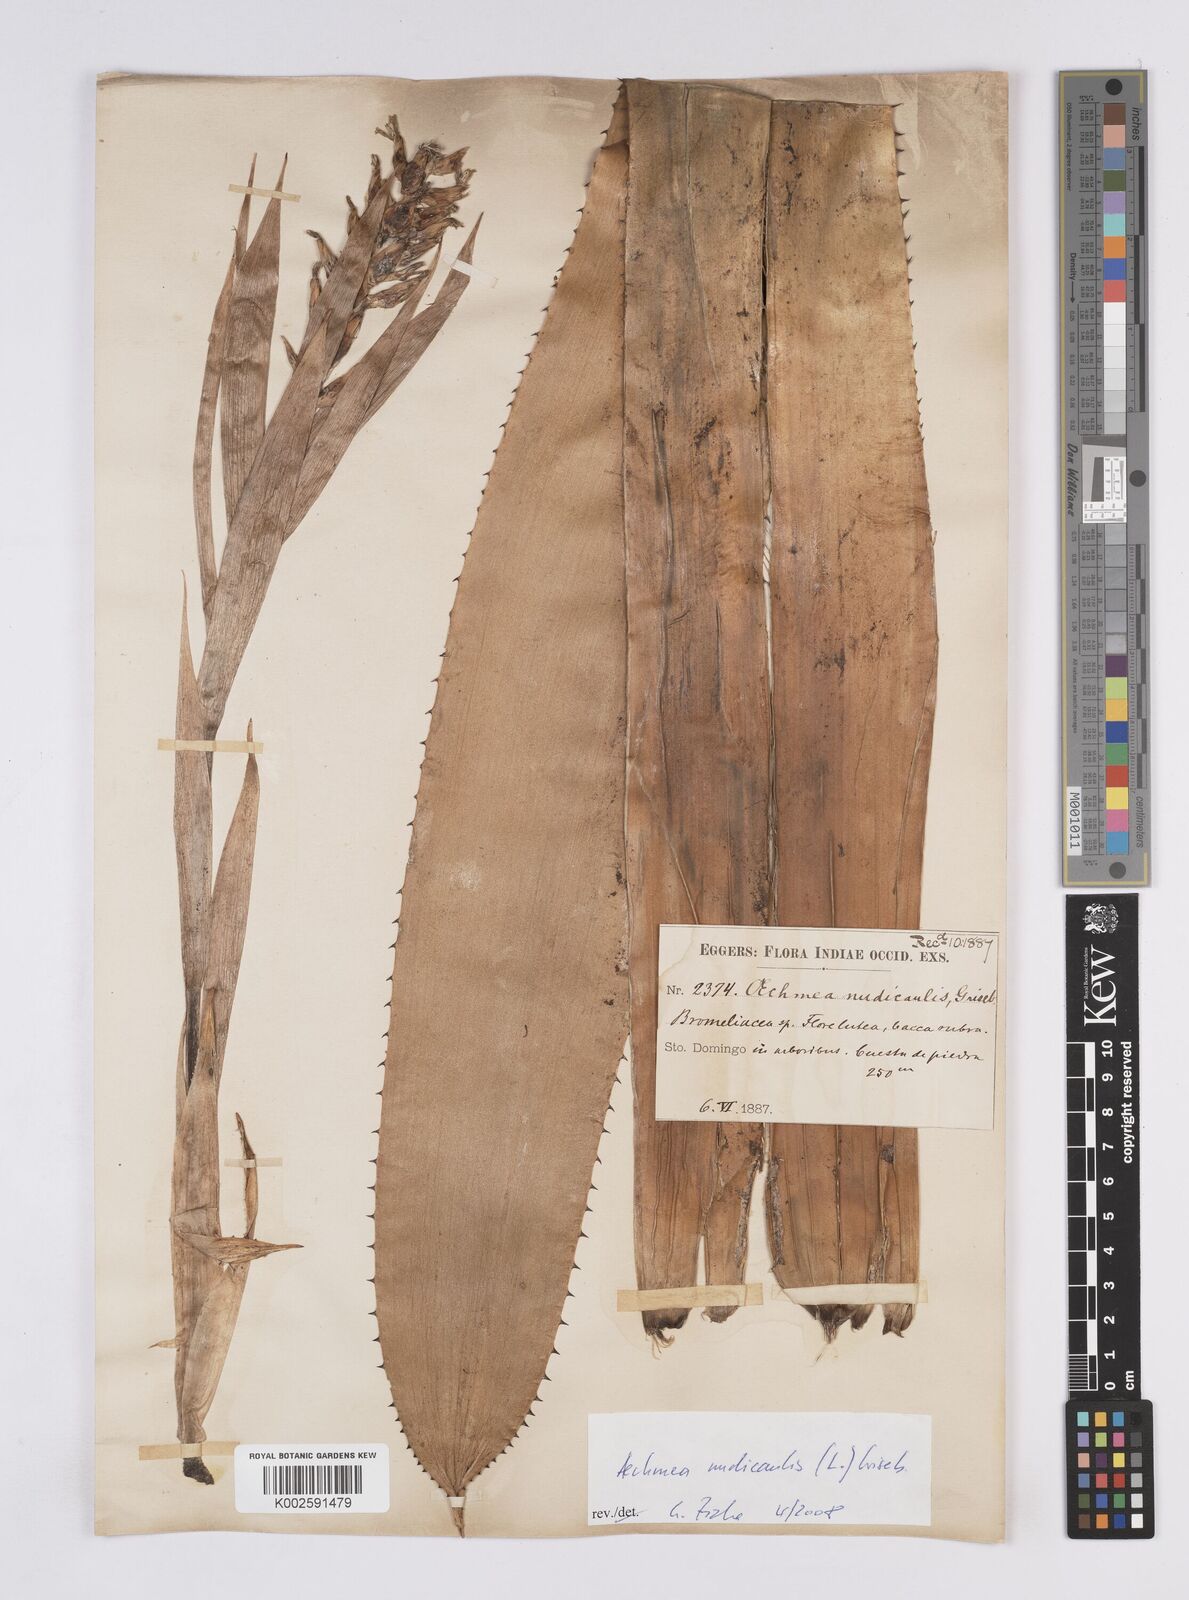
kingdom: Plantae
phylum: Tracheophyta
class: Liliopsida
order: Poales
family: Bromeliaceae
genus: Aechmea
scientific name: Aechmea nudicaulis
